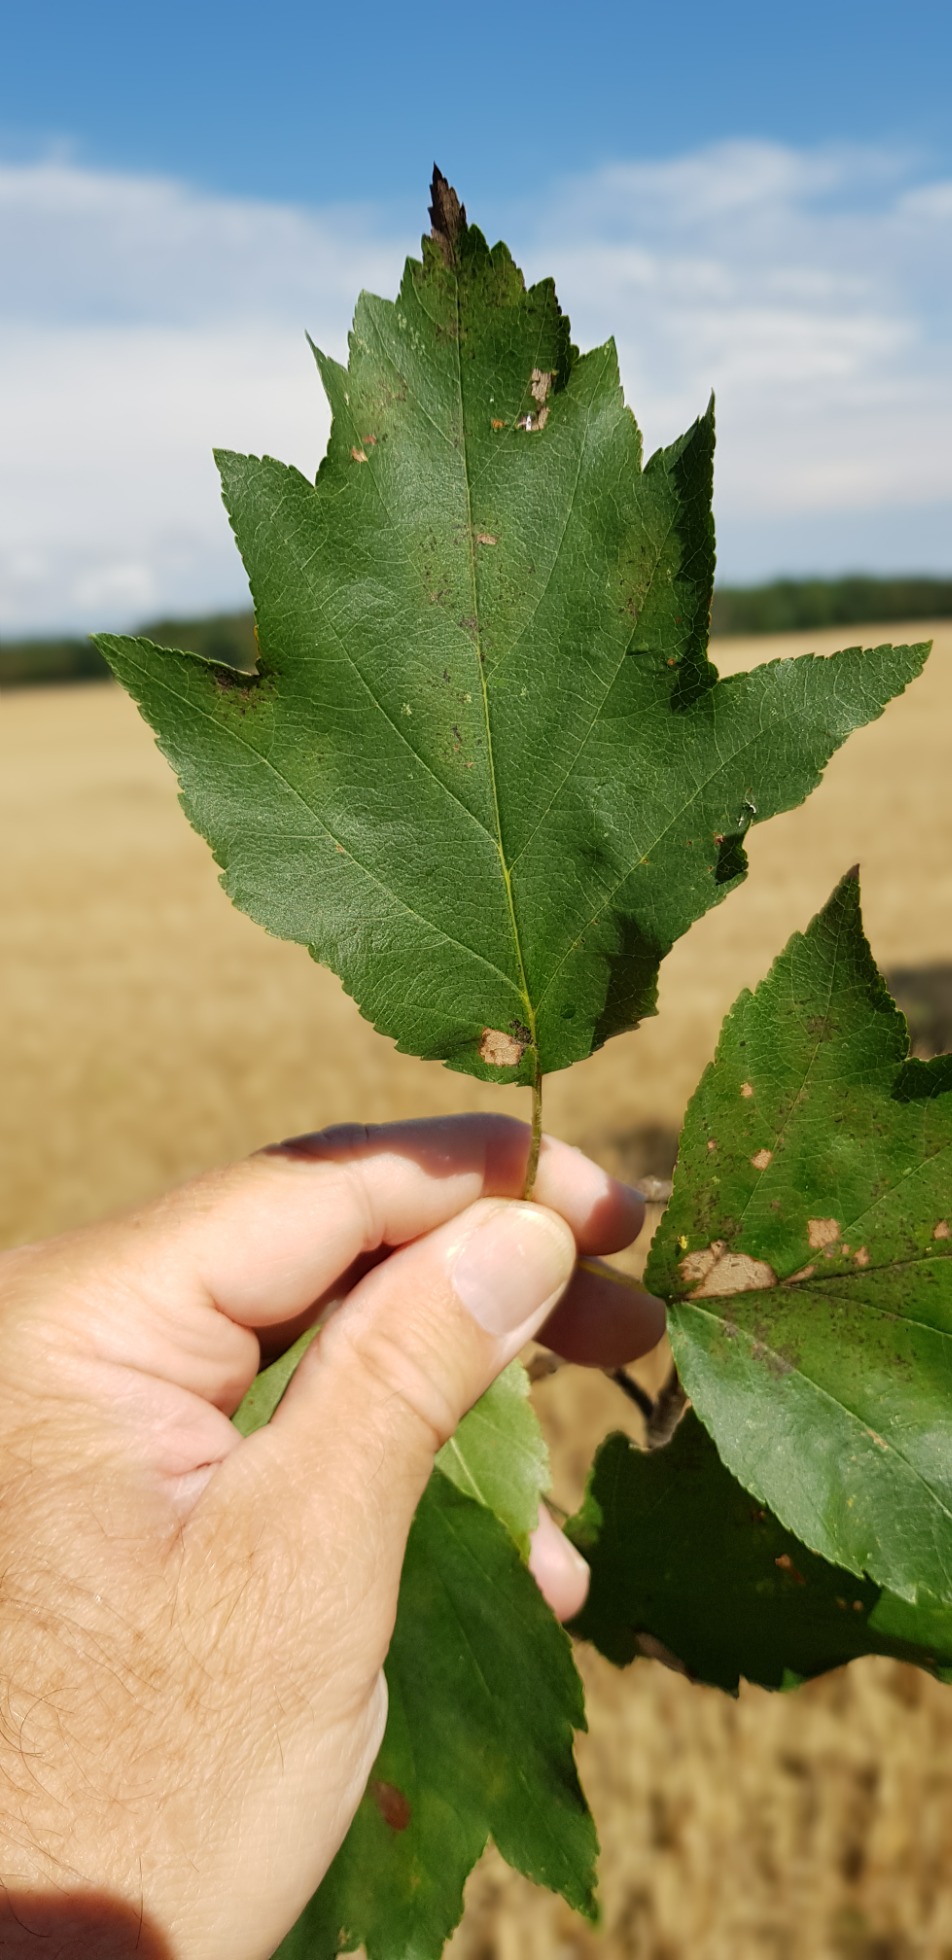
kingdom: Plantae
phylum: Tracheophyta
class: Magnoliopsida
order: Rosales
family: Rosaceae
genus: Torminalis
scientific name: Torminalis glaberrima
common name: Tarmvrid-røn
